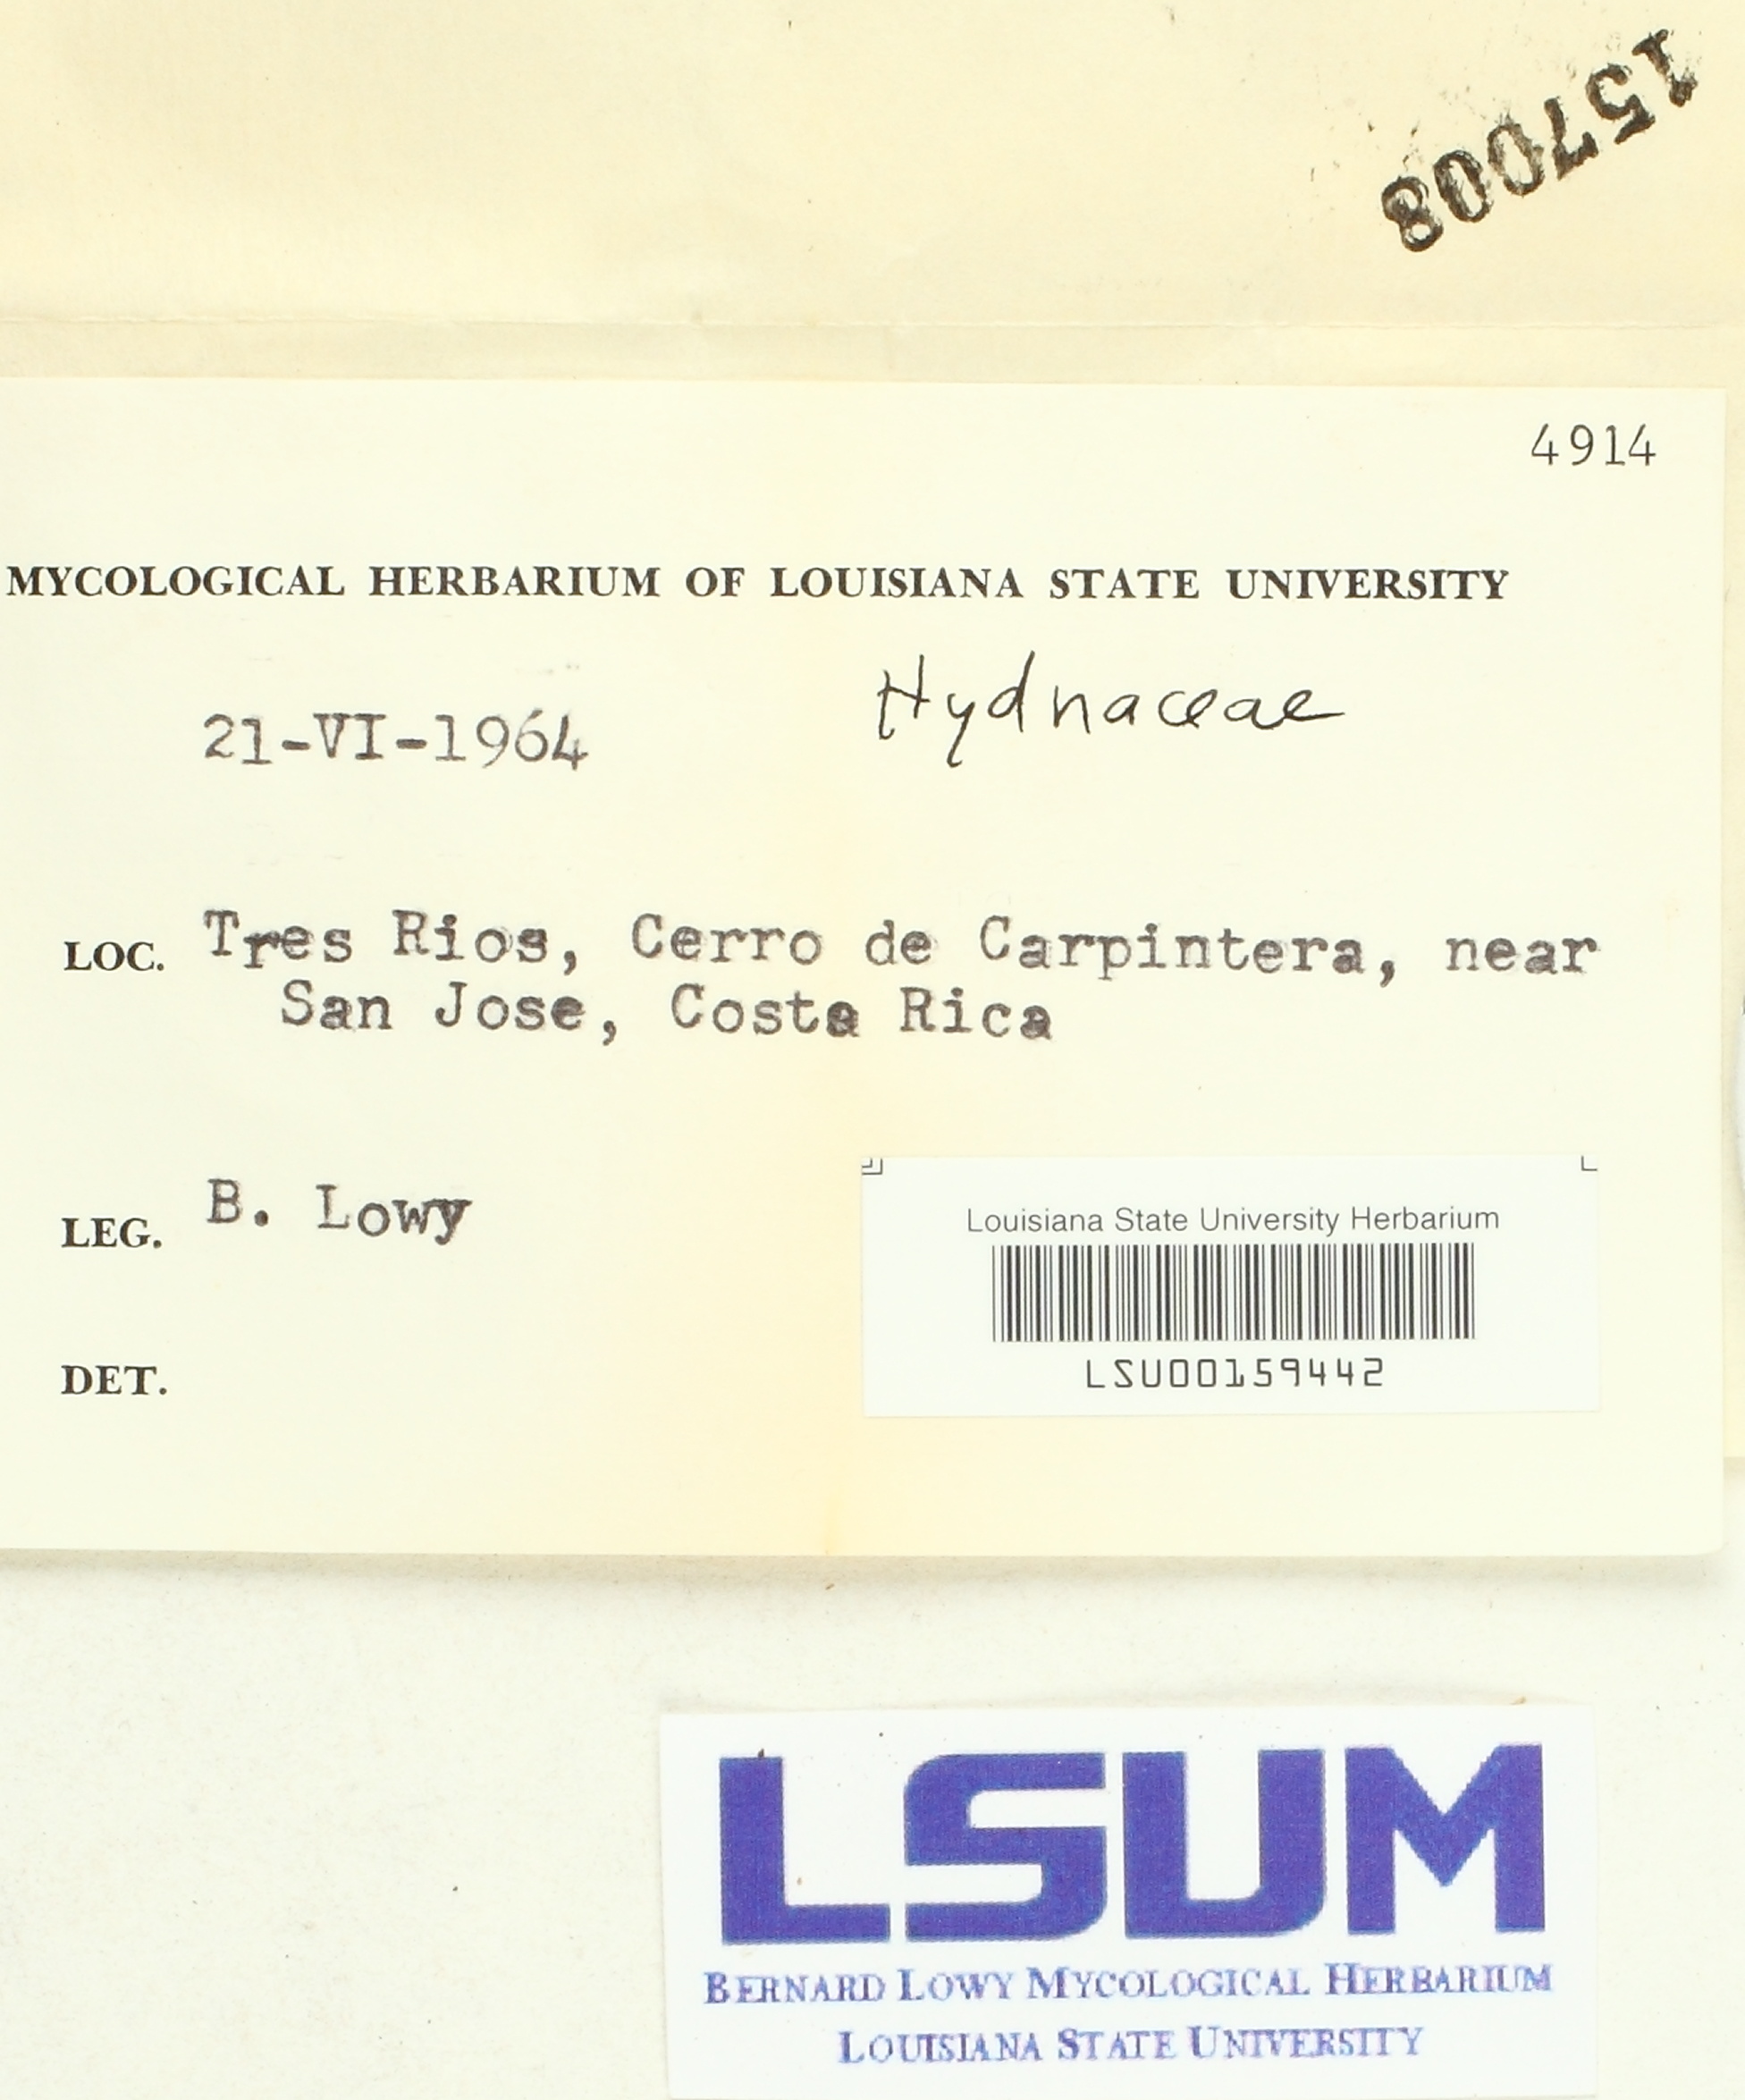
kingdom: Fungi
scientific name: Fungi
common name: Fungi
